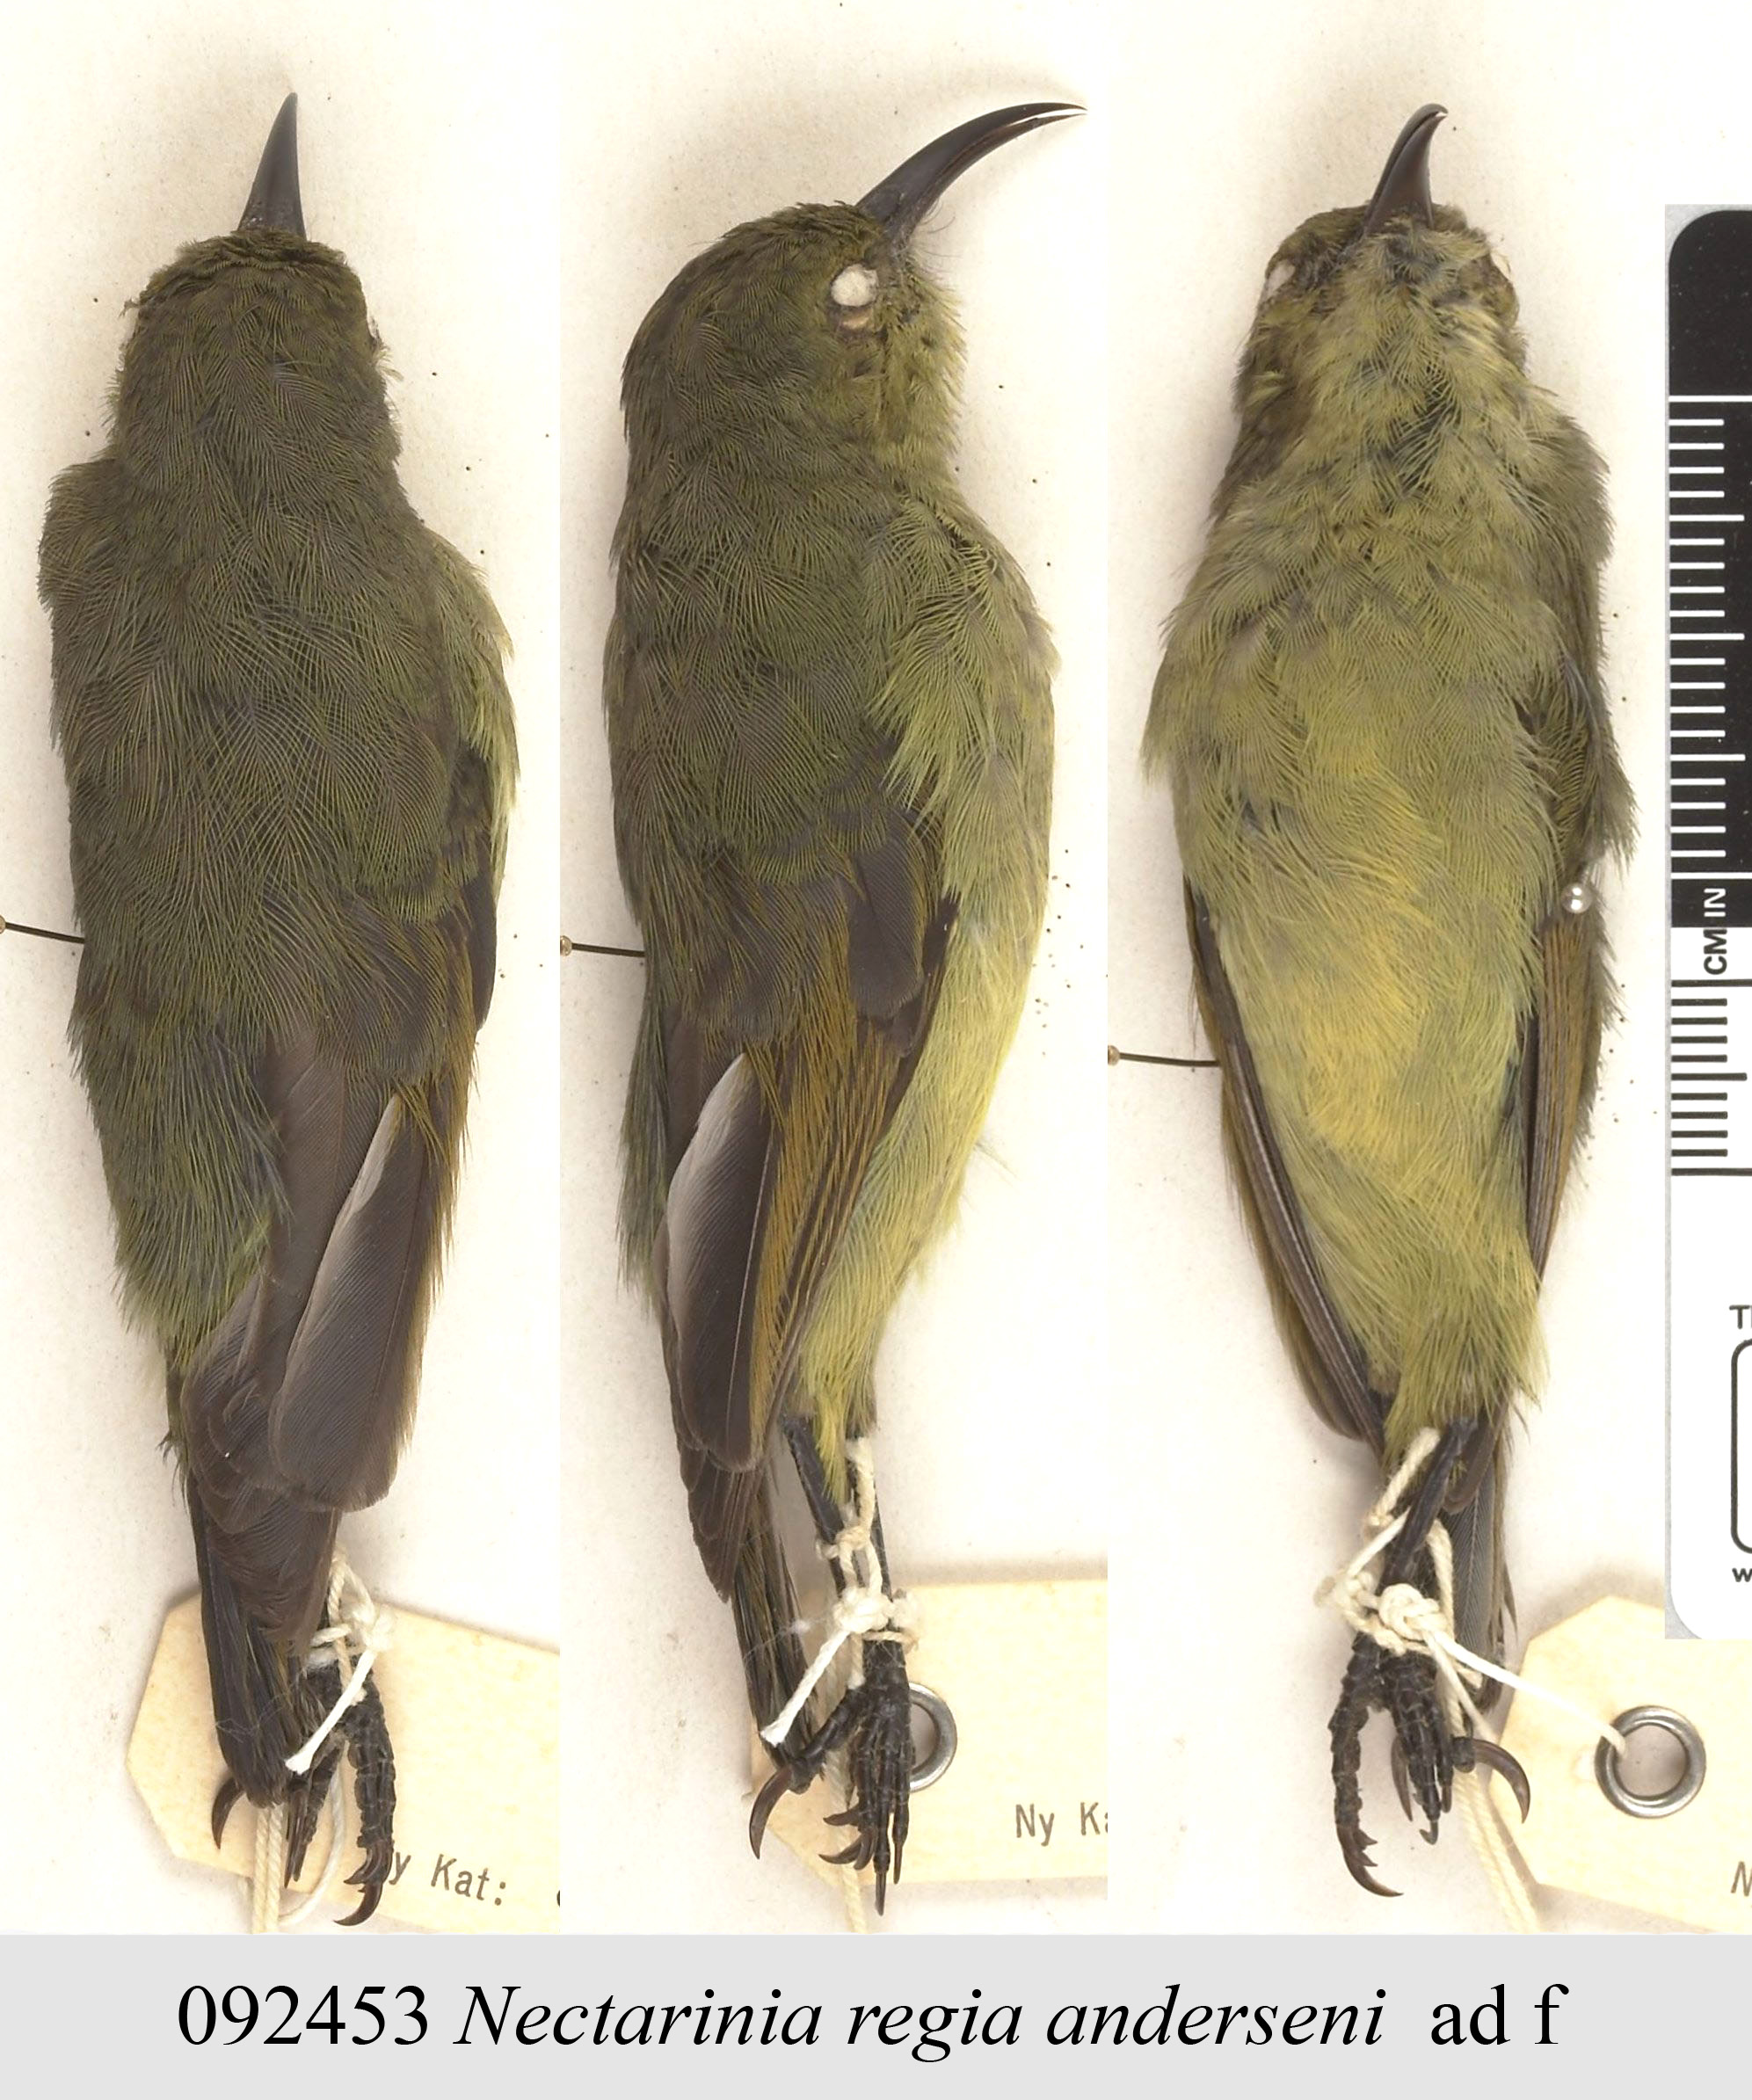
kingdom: Animalia
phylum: Chordata
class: Aves
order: Passeriformes
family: Nectariniidae
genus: Cinnyris
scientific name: Cinnyris regius
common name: Regal sunbird
